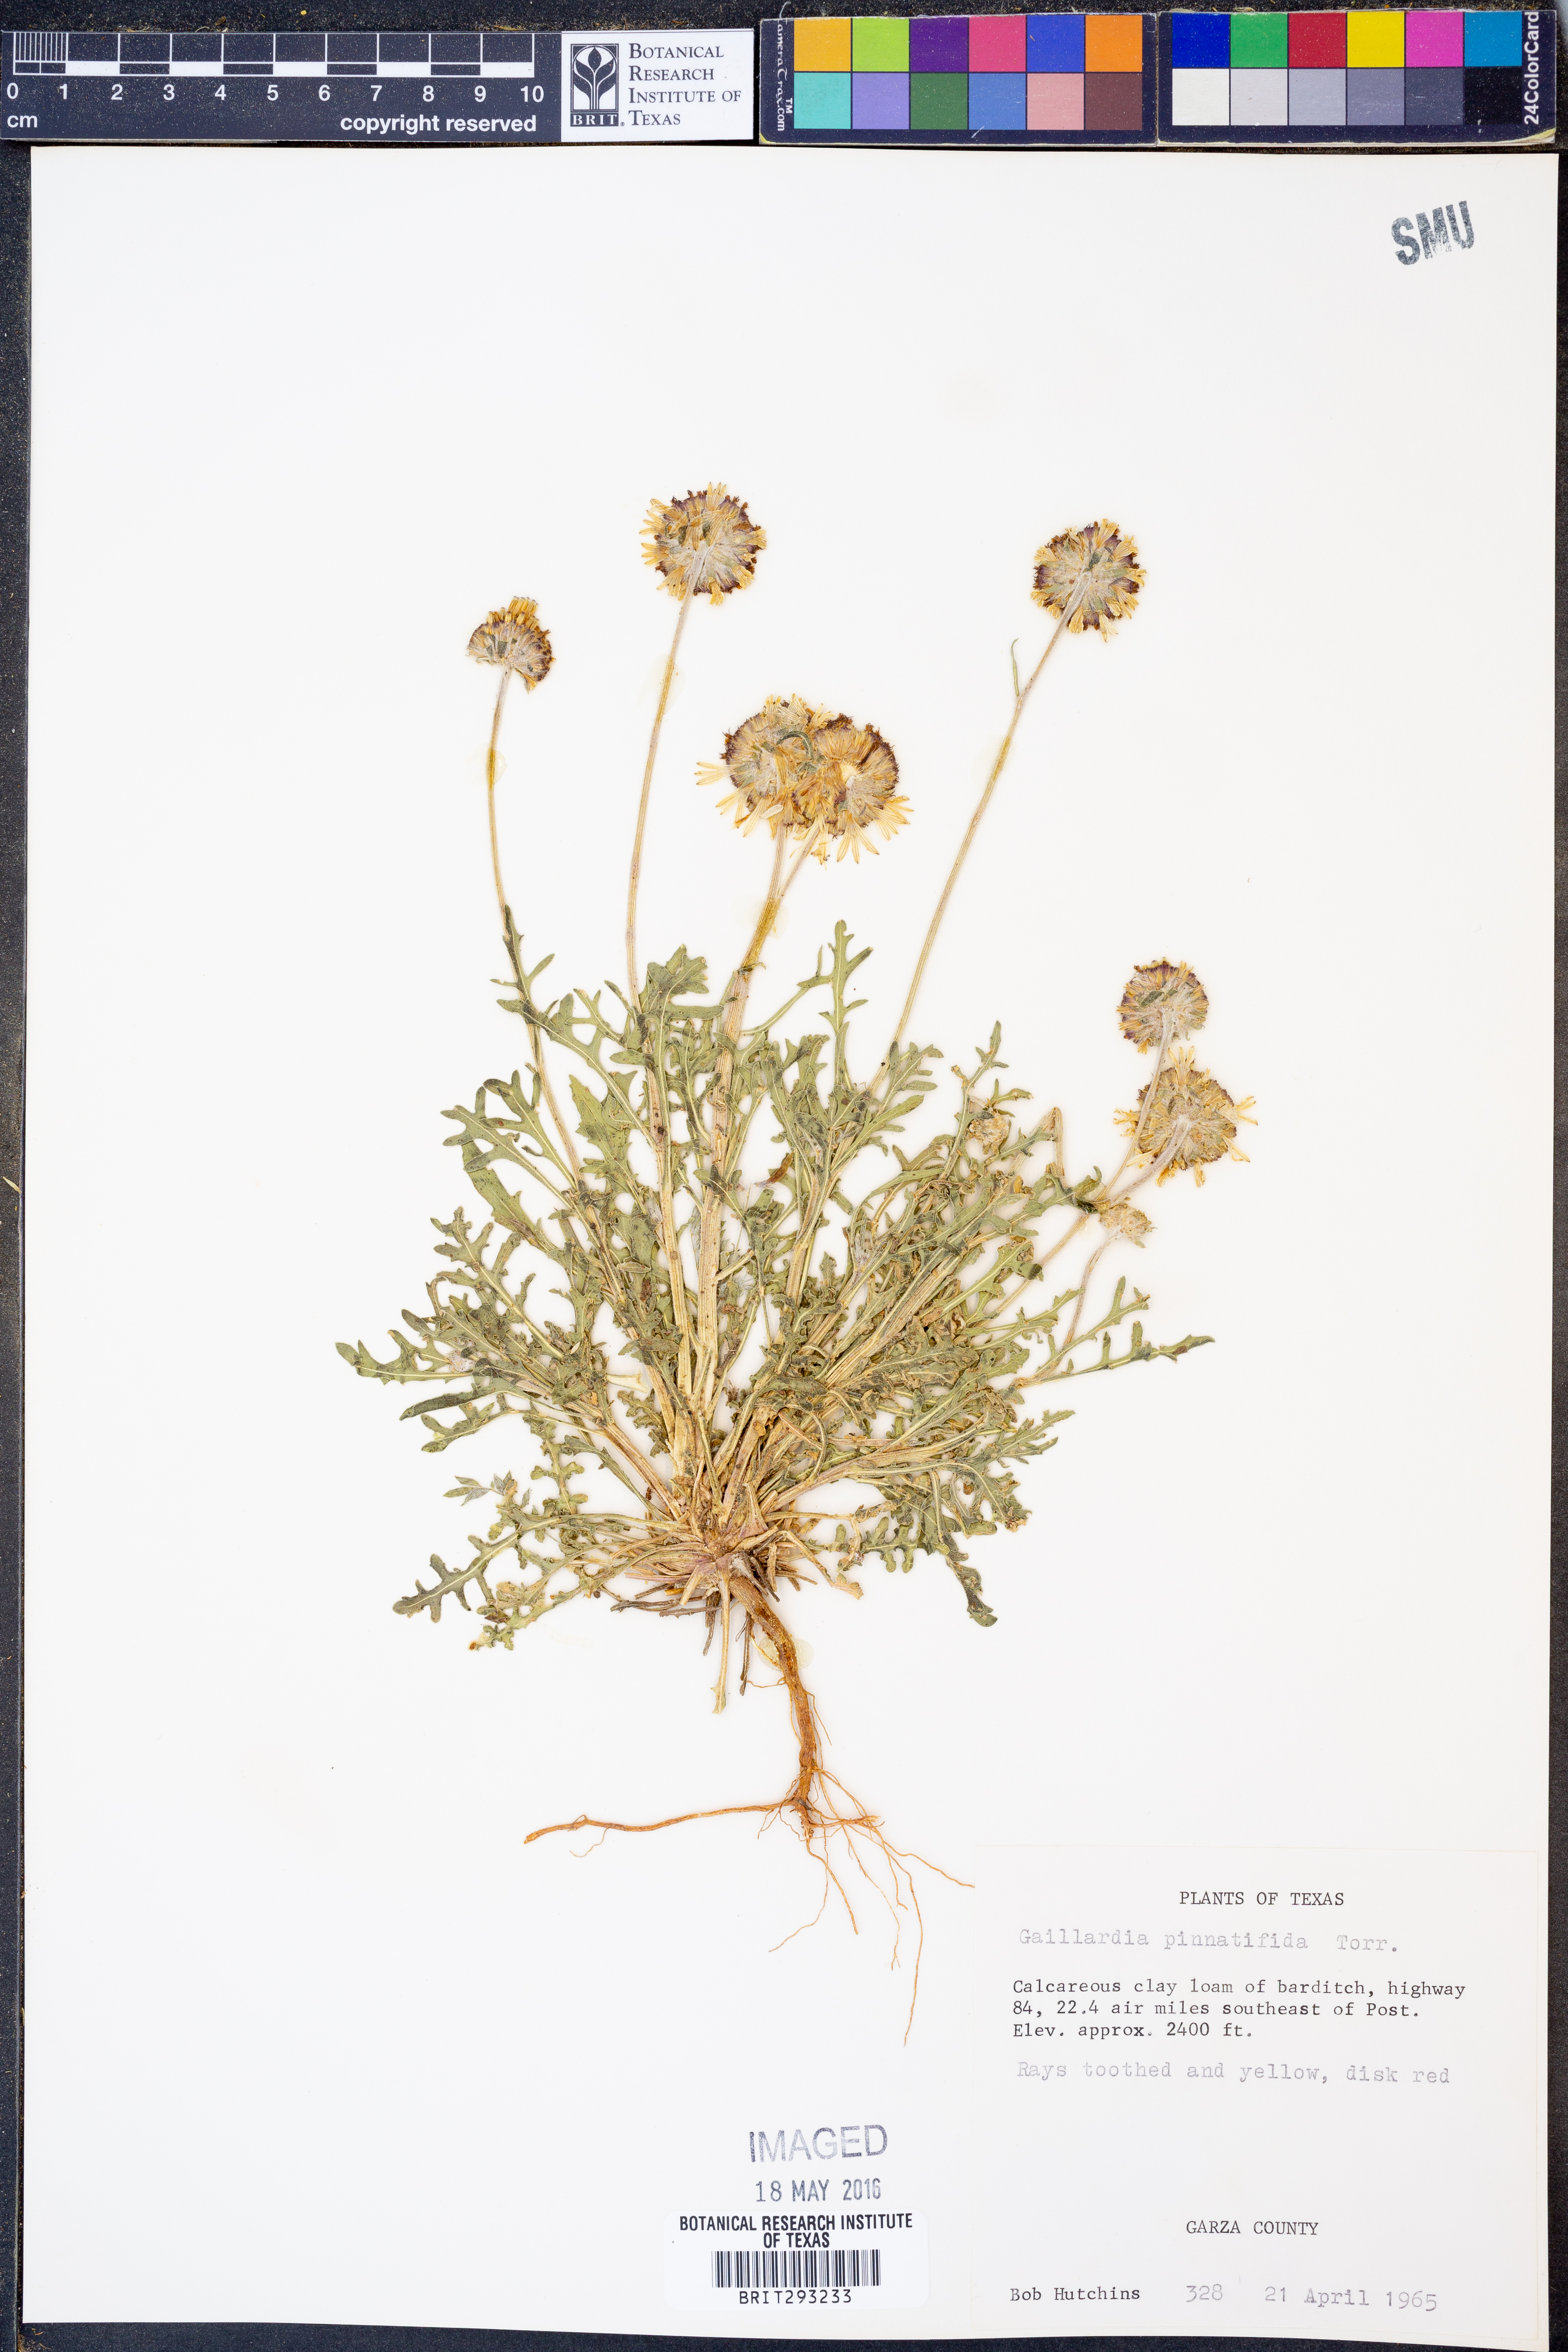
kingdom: Plantae
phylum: Tracheophyta
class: Magnoliopsida
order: Asterales
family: Asteraceae
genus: Gaillardia
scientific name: Gaillardia pinnatifida
